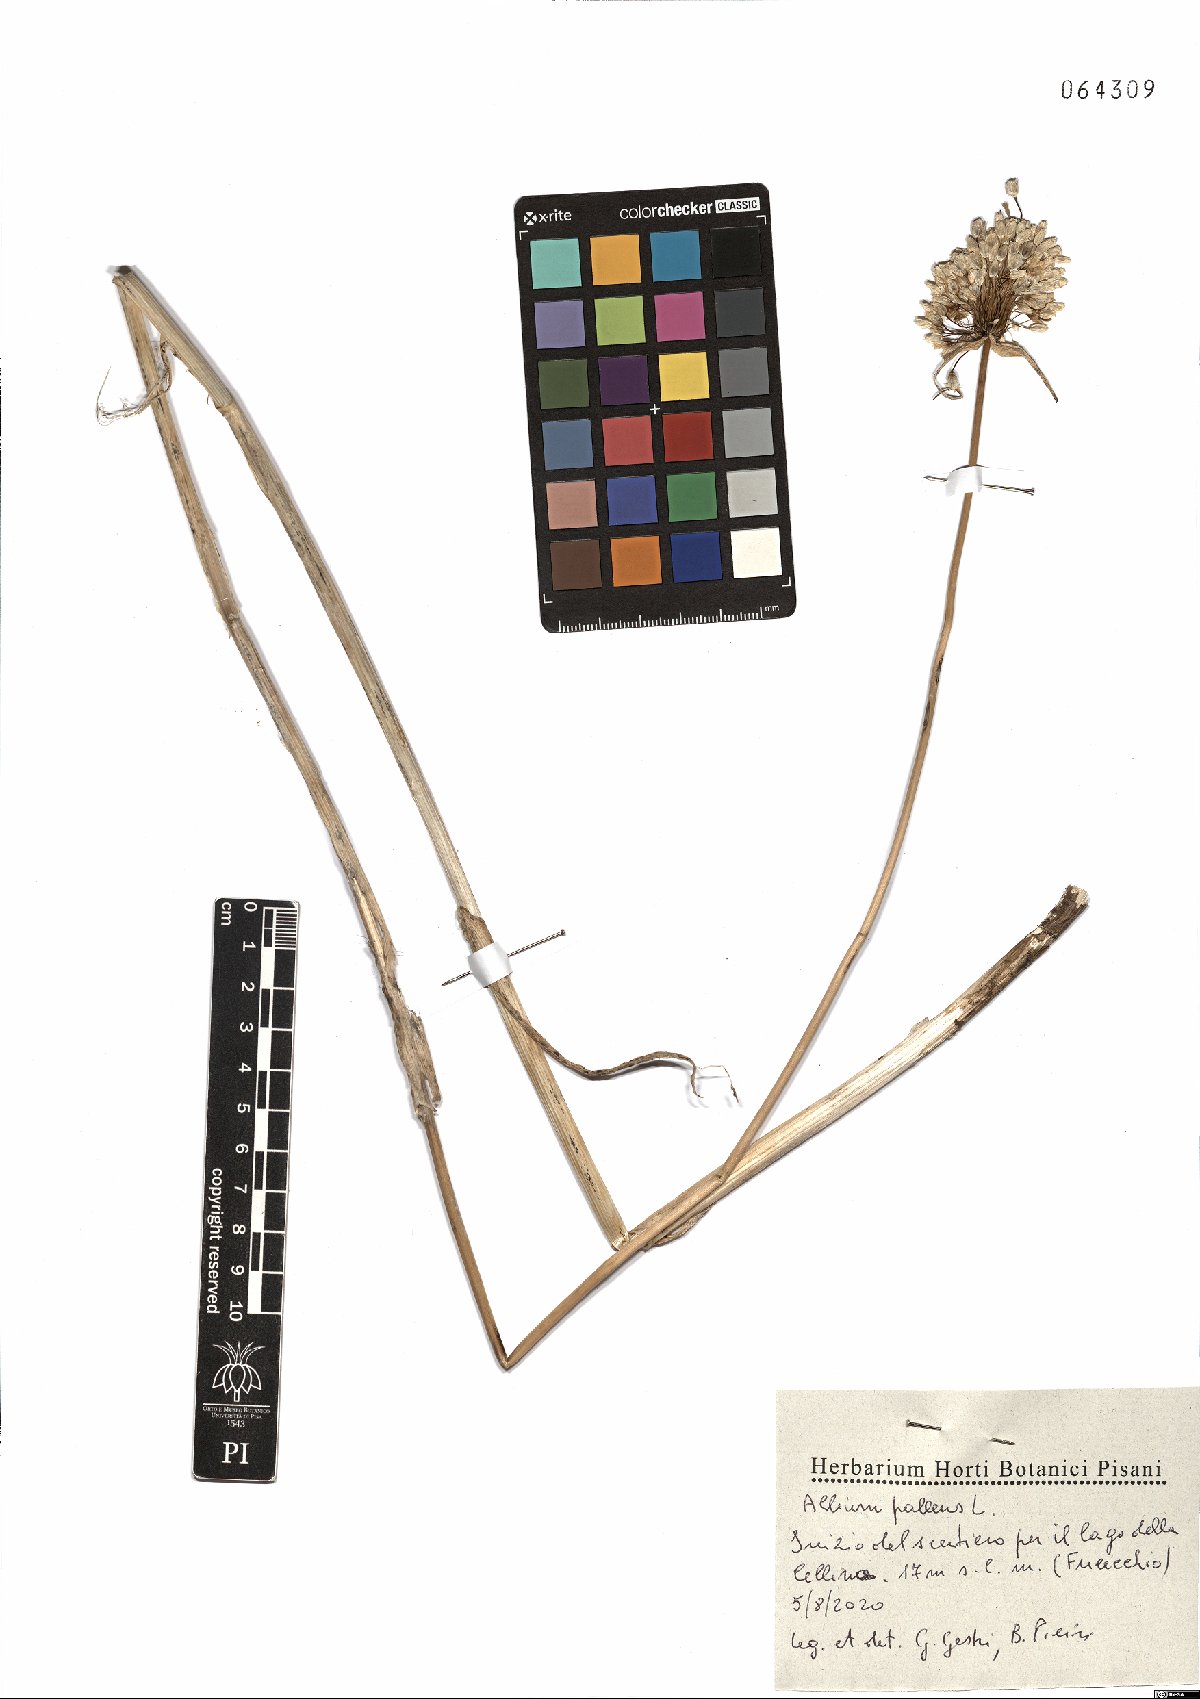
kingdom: Plantae
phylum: Tracheophyta
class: Liliopsida
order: Asparagales
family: Amaryllidaceae
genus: Allium
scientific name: Allium pallens
